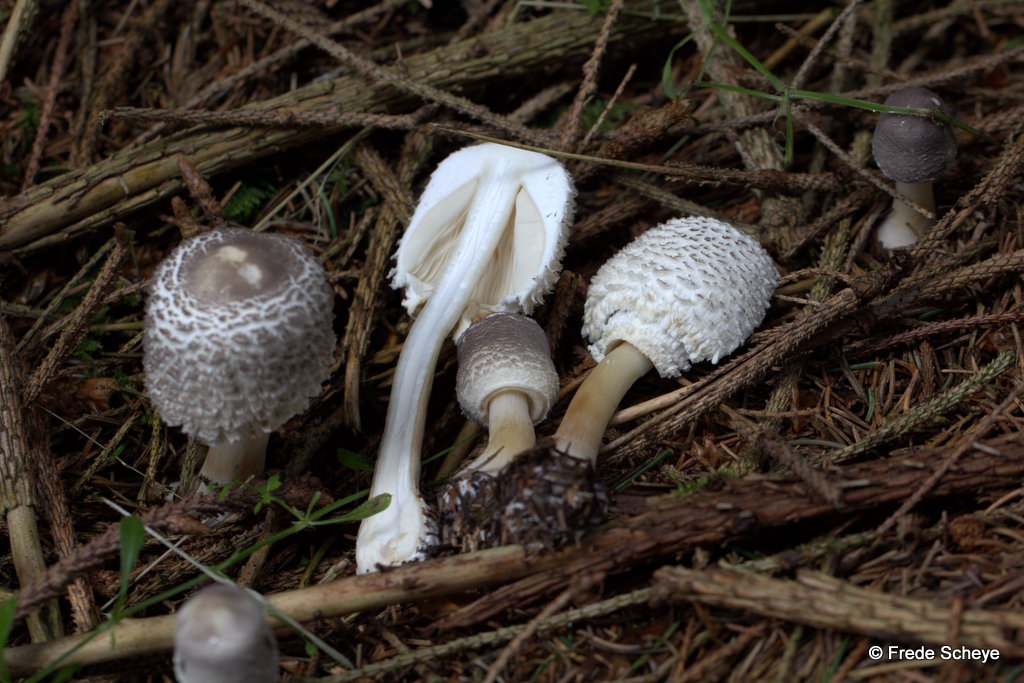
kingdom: Fungi
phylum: Basidiomycota
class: Agaricomycetes
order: Agaricales
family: Agaricaceae
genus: Leucoagaricus
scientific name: Leucoagaricus nympharum
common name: gran-silkehat
